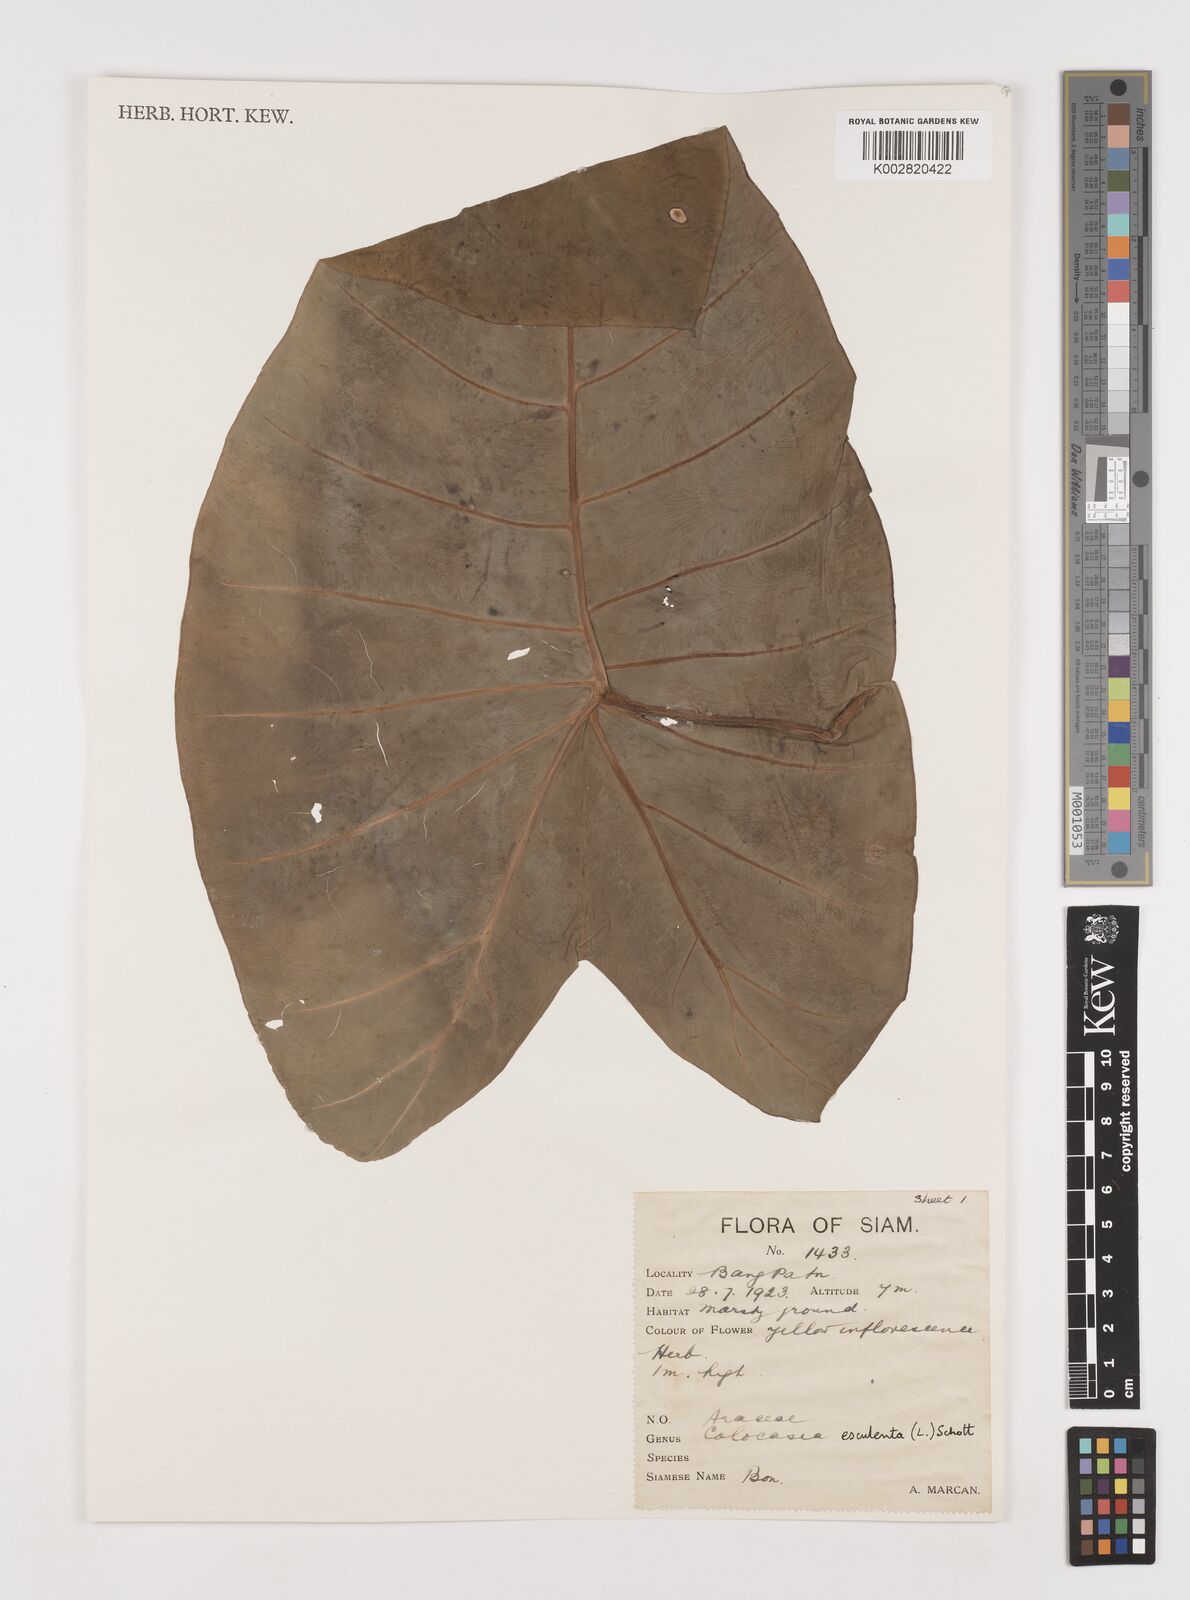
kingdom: Plantae
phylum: Tracheophyta
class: Liliopsida
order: Alismatales
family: Araceae
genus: Colocasia
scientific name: Colocasia esculenta
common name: Taro
